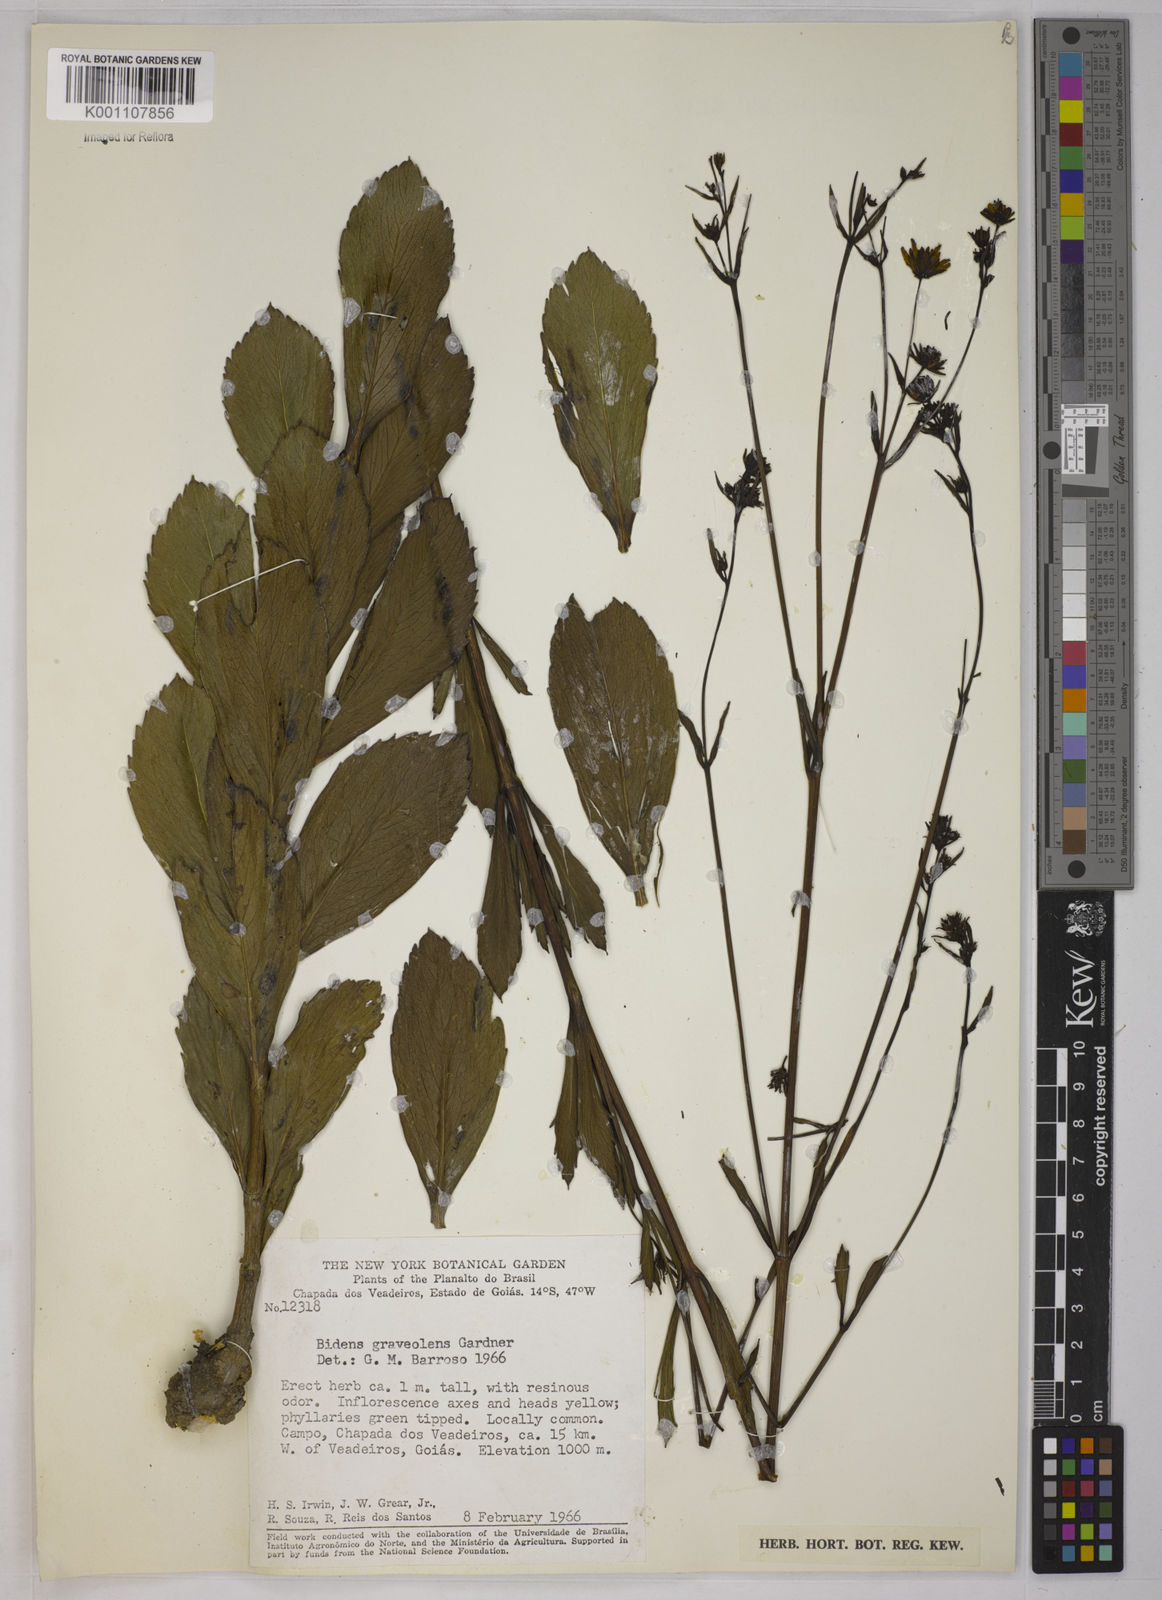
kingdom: Plantae
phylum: Tracheophyta
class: Magnoliopsida
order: Asterales
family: Asteraceae
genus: Bidens
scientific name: Bidens
